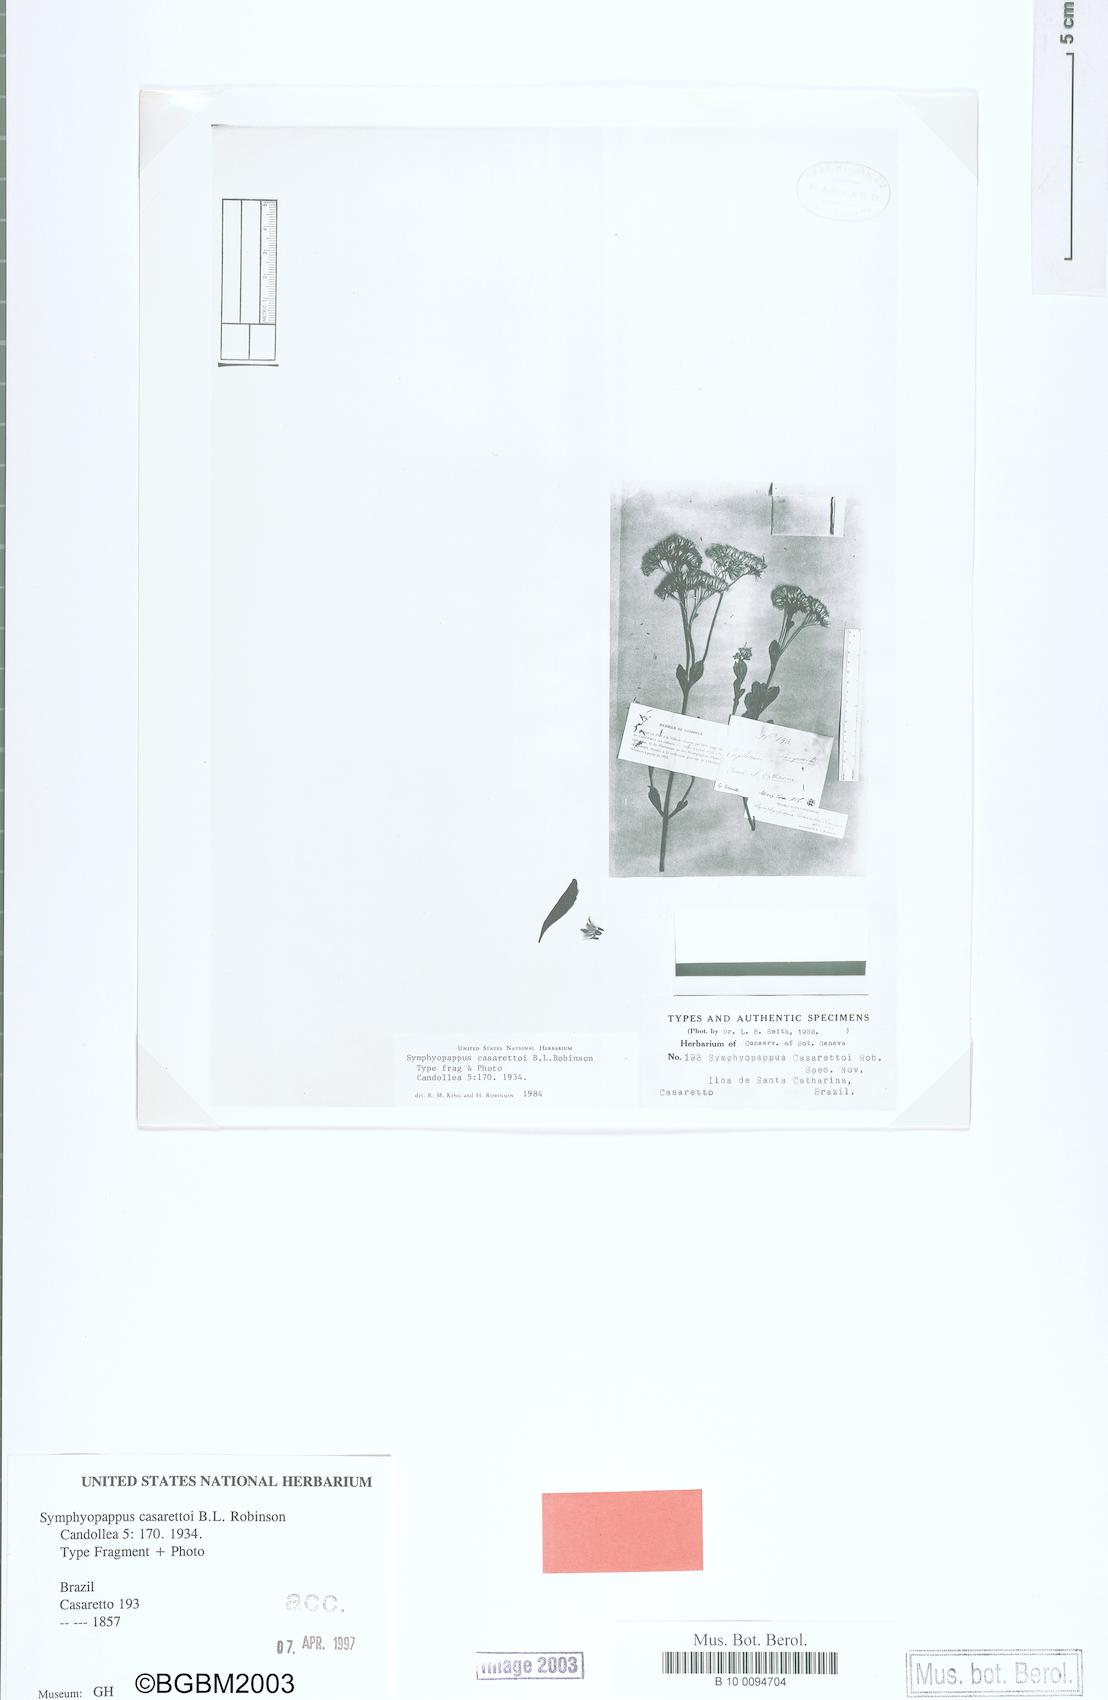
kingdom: Plantae
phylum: Tracheophyta
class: Magnoliopsida
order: Asterales
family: Asteraceae
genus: Symphyopappus
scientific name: Symphyopappus casarettoi
